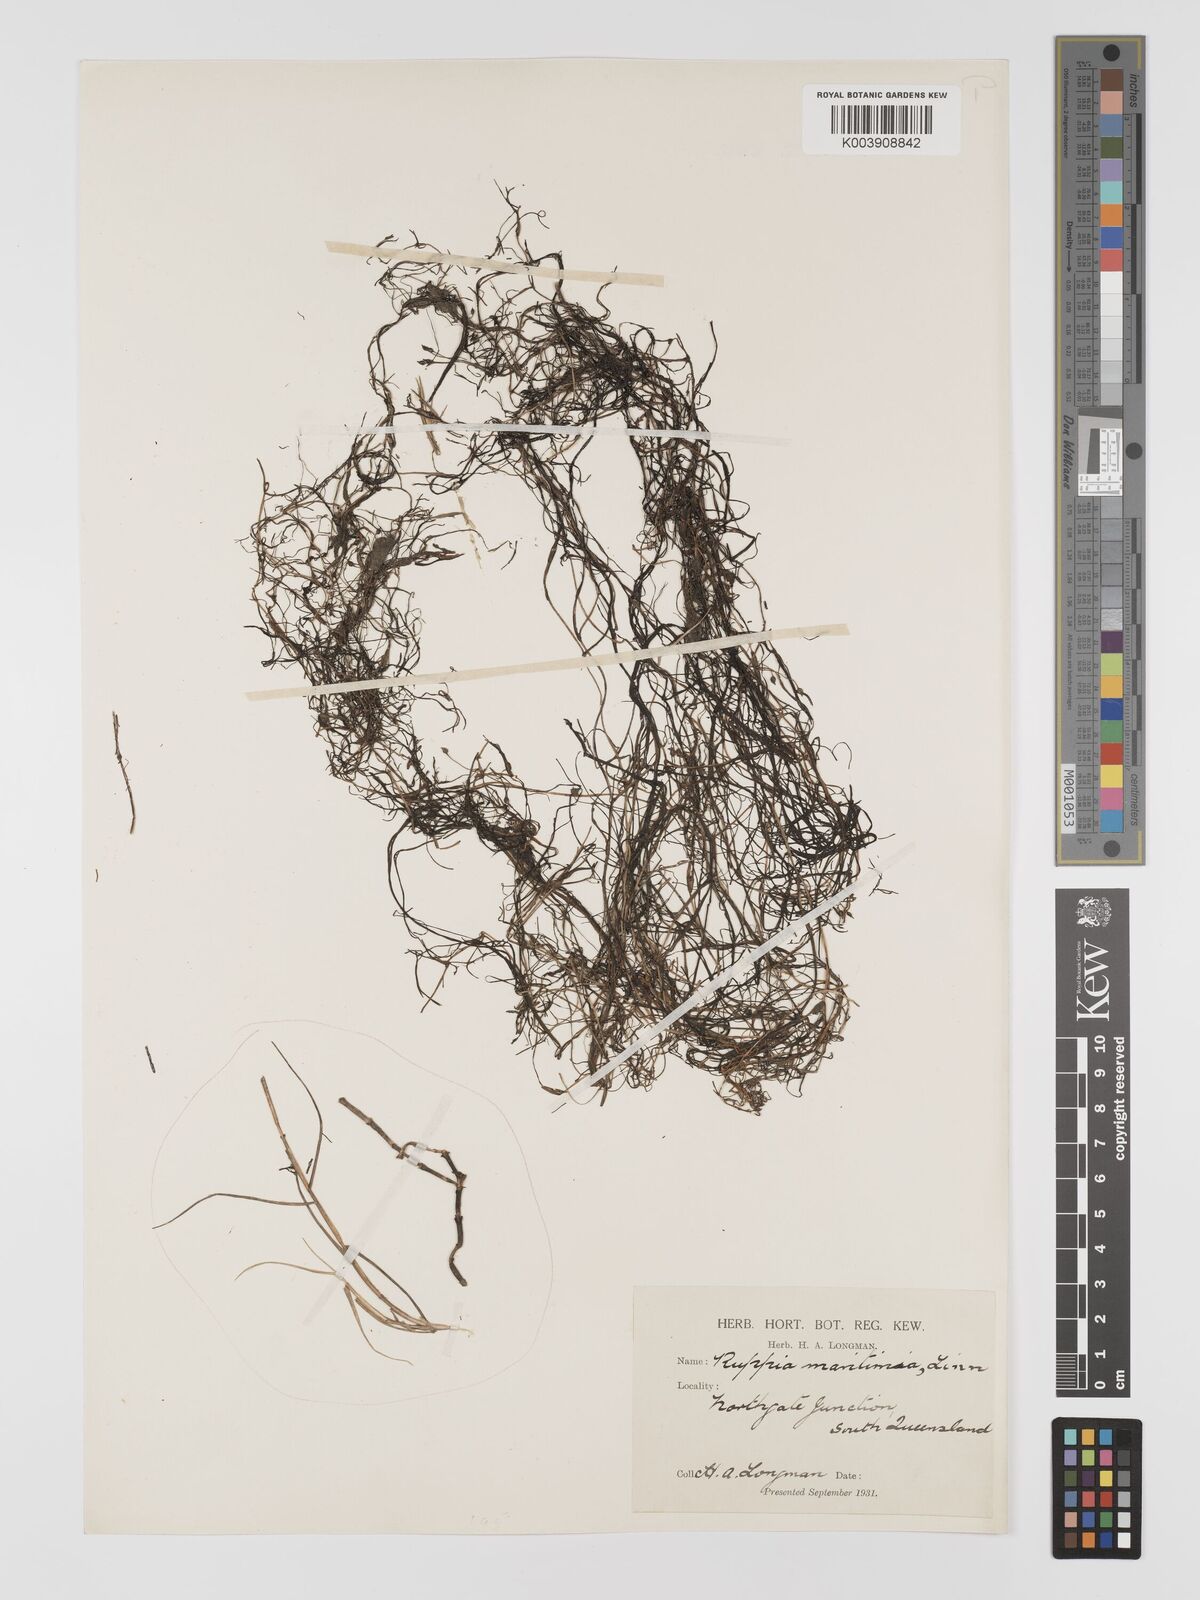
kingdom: Plantae
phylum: Tracheophyta
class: Liliopsida
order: Alismatales
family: Ruppiaceae
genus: Ruppia
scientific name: Ruppia maritima
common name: Beaked tasselweed
